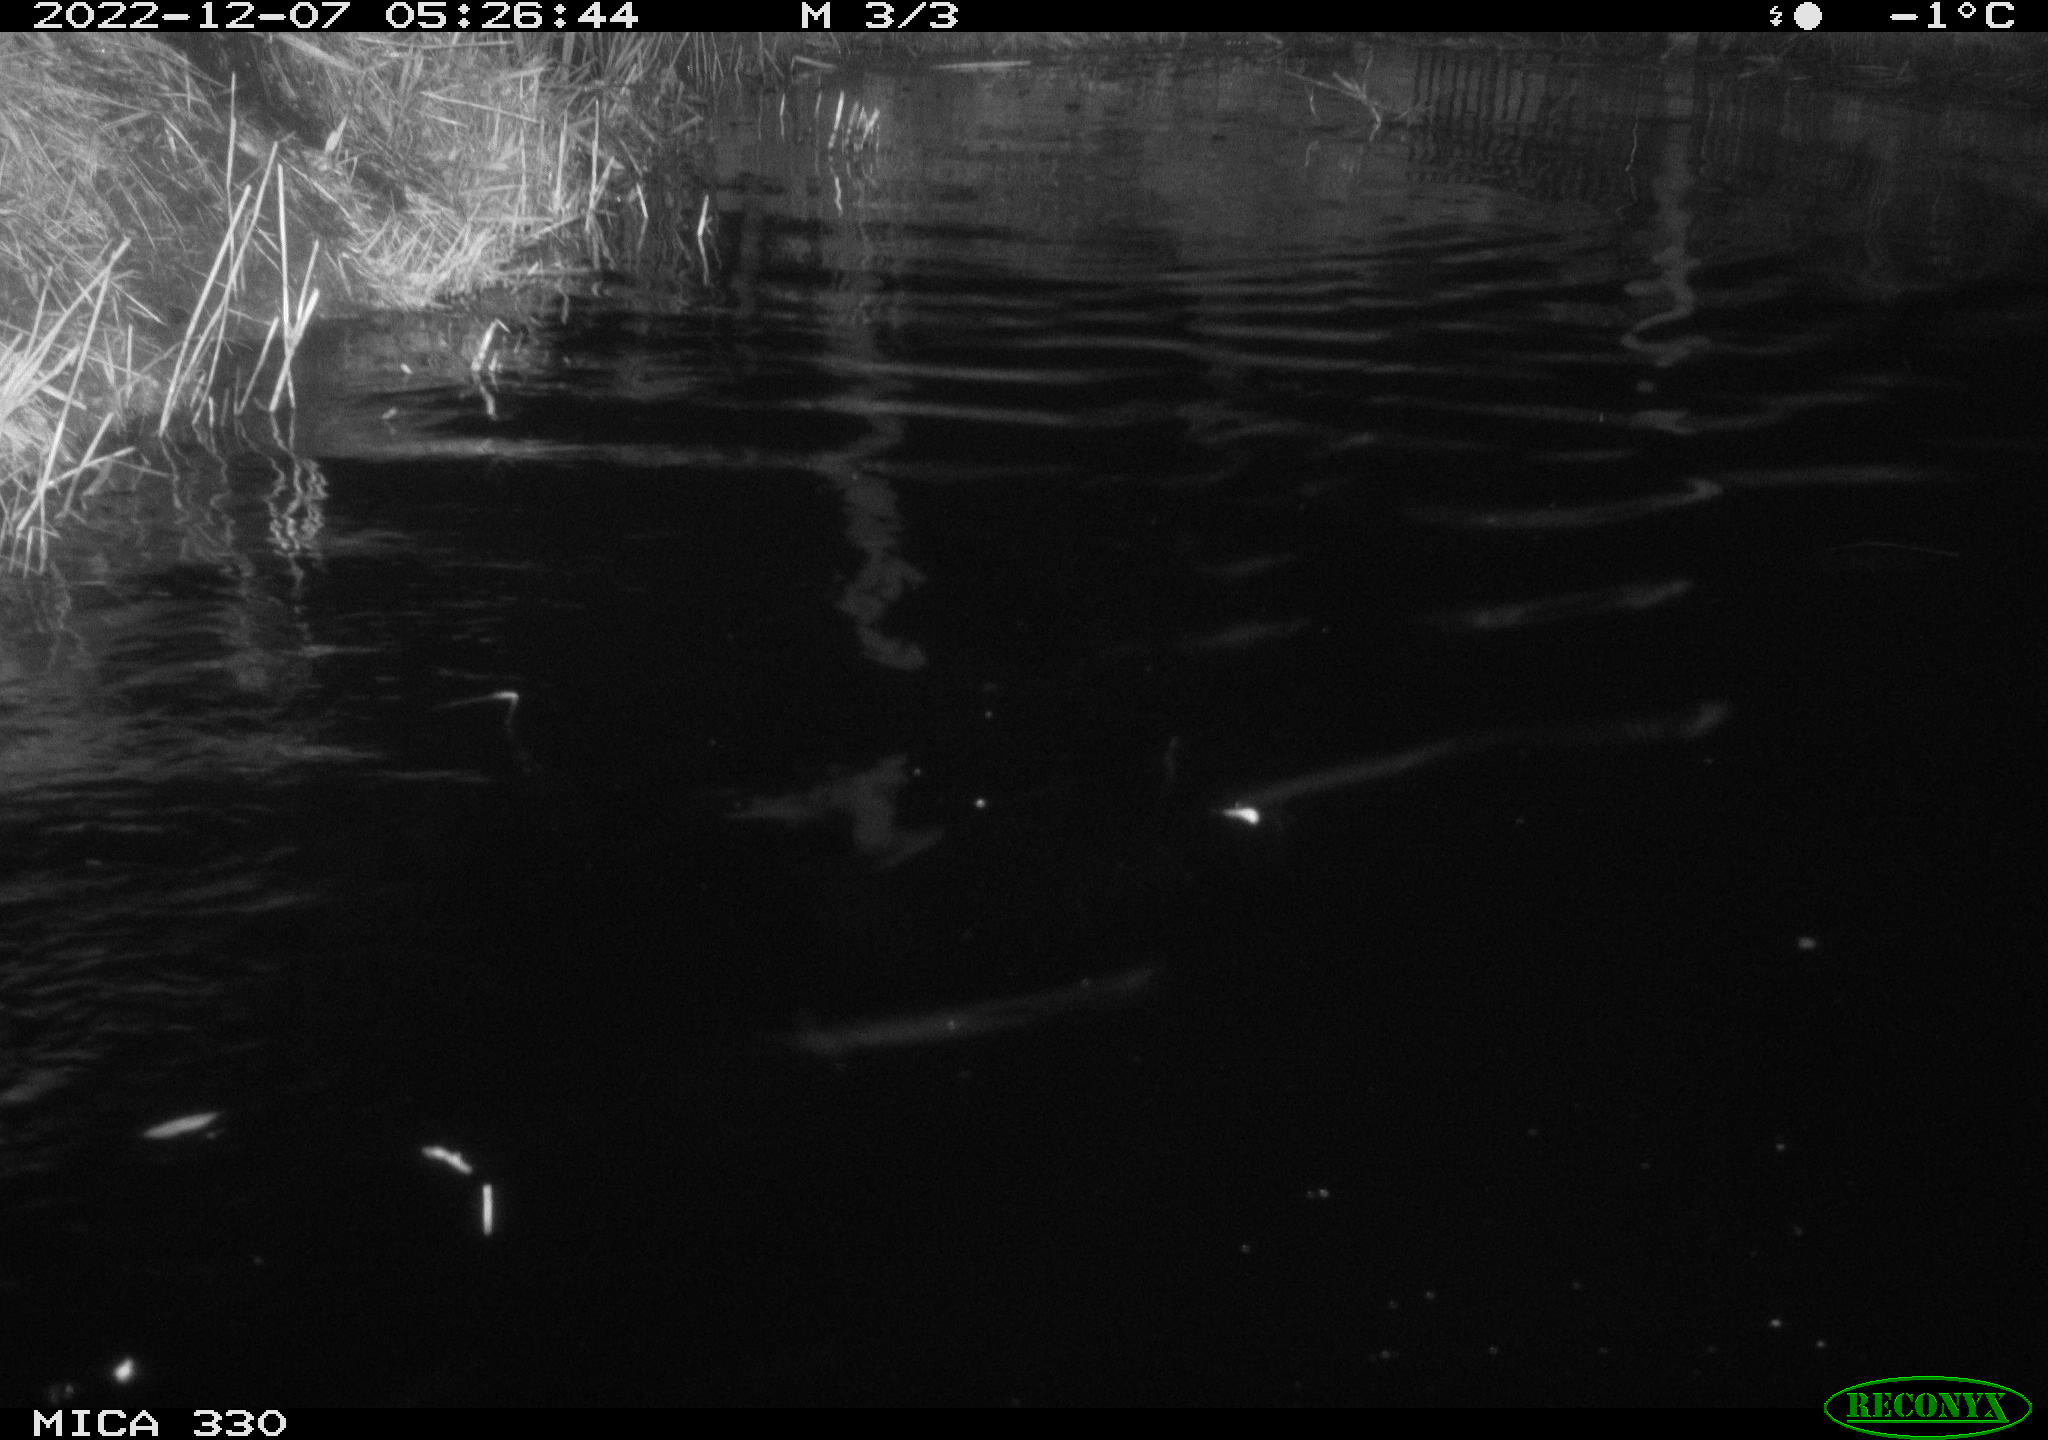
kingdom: Animalia
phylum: Chordata
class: Mammalia
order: Rodentia
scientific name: Rodentia
